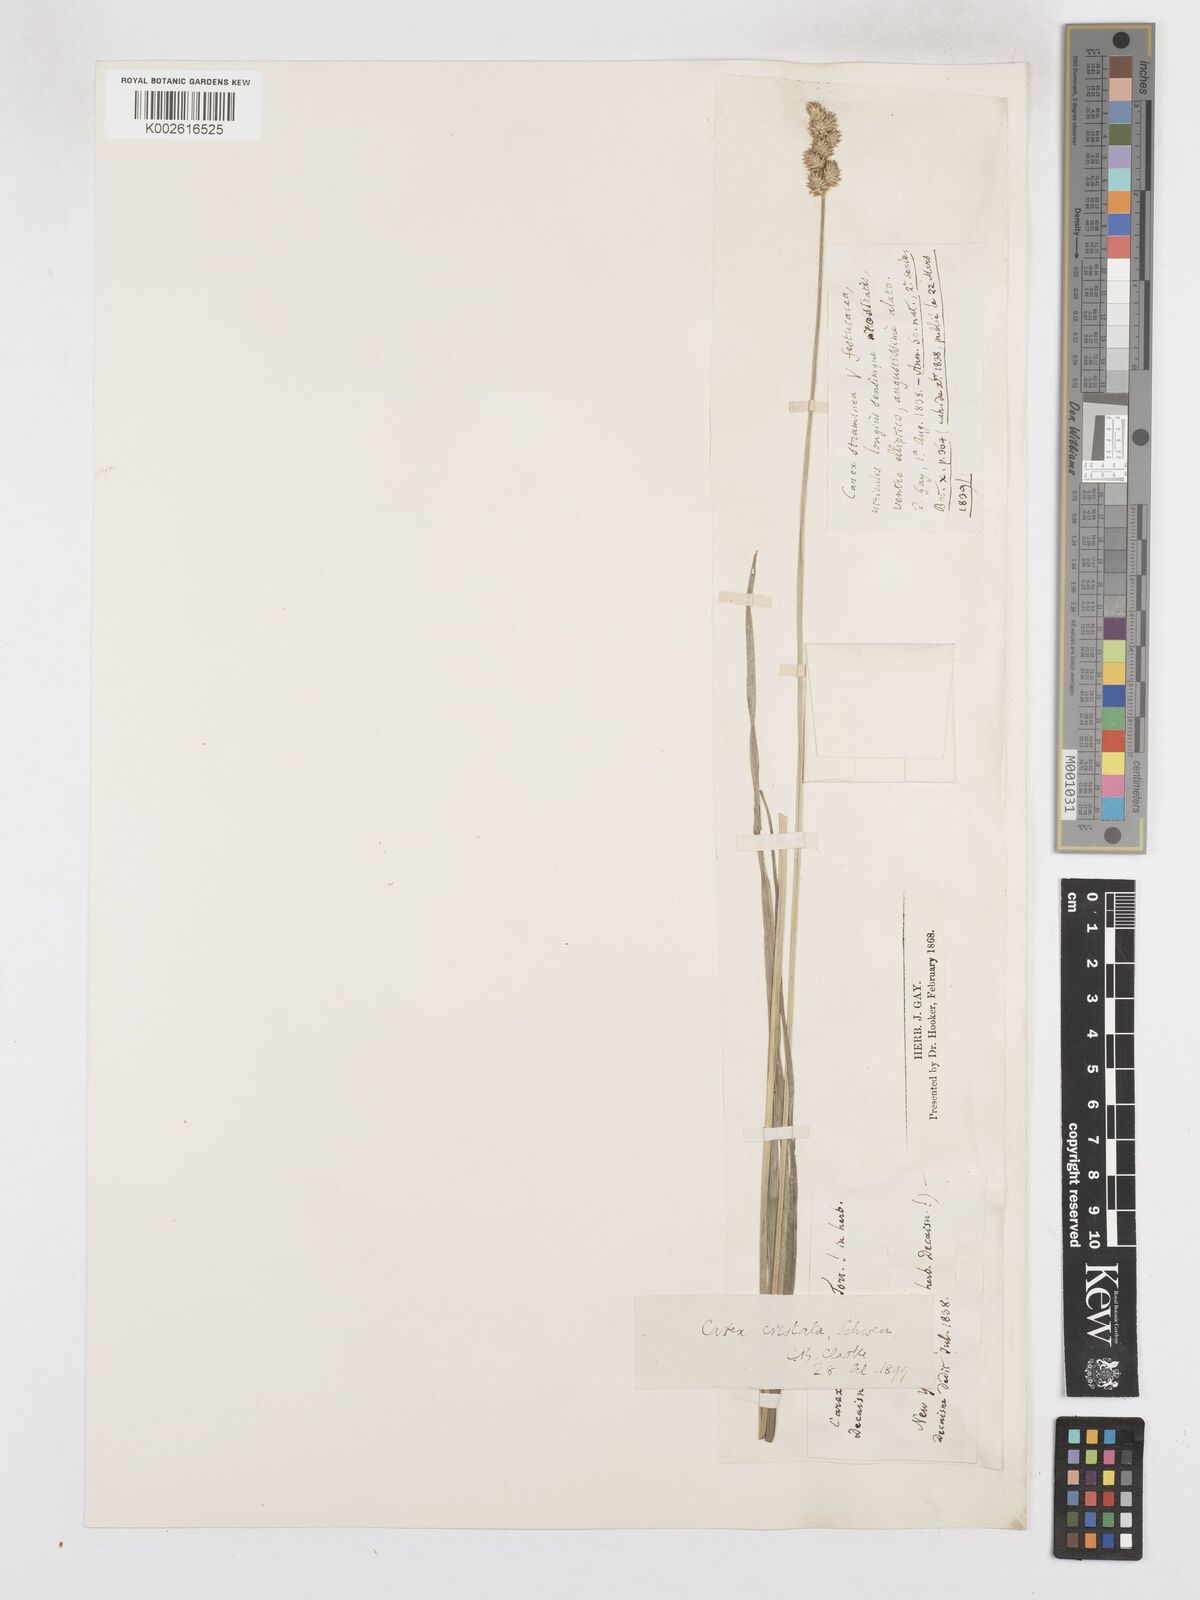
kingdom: Plantae
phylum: Tracheophyta
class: Liliopsida
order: Poales
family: Cyperaceae
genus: Carex
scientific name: Carex cristatella
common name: Crested oval sedge
